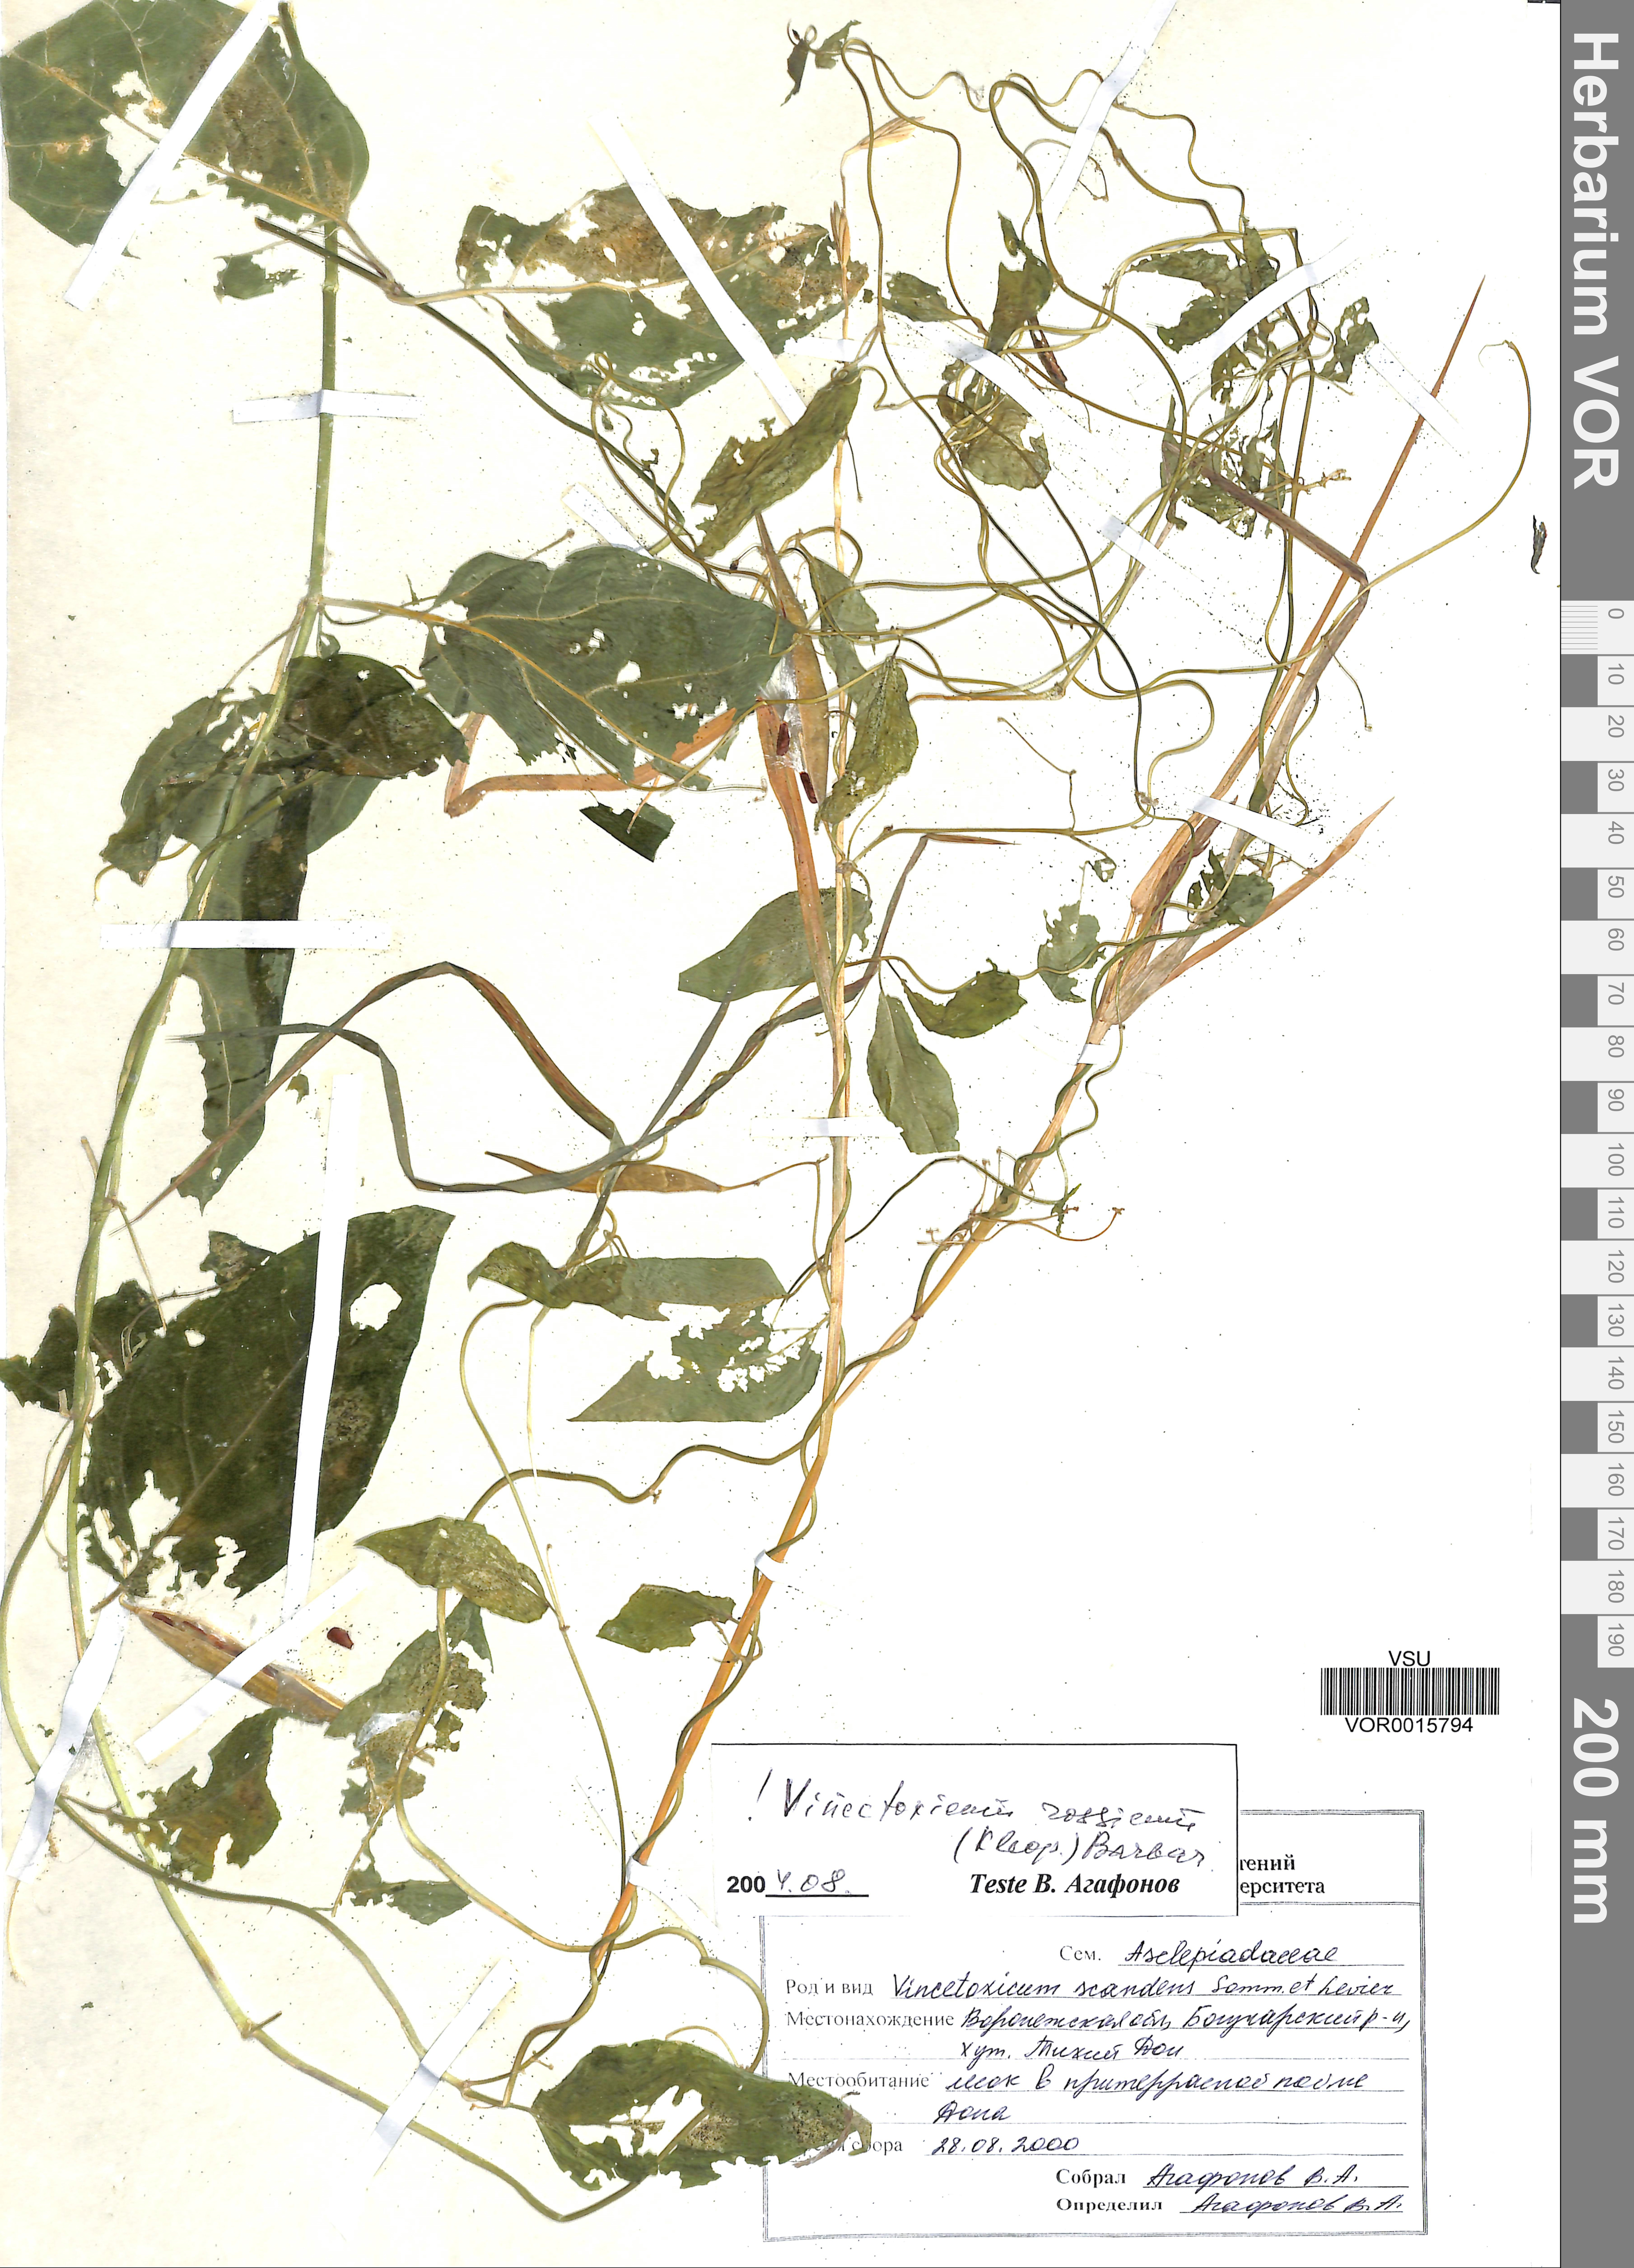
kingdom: Plantae
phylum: Tracheophyta
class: Magnoliopsida
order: Gentianales
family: Apocynaceae
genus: Vincetoxicum
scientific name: Vincetoxicum rossicum
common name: Dog-strangling vine
